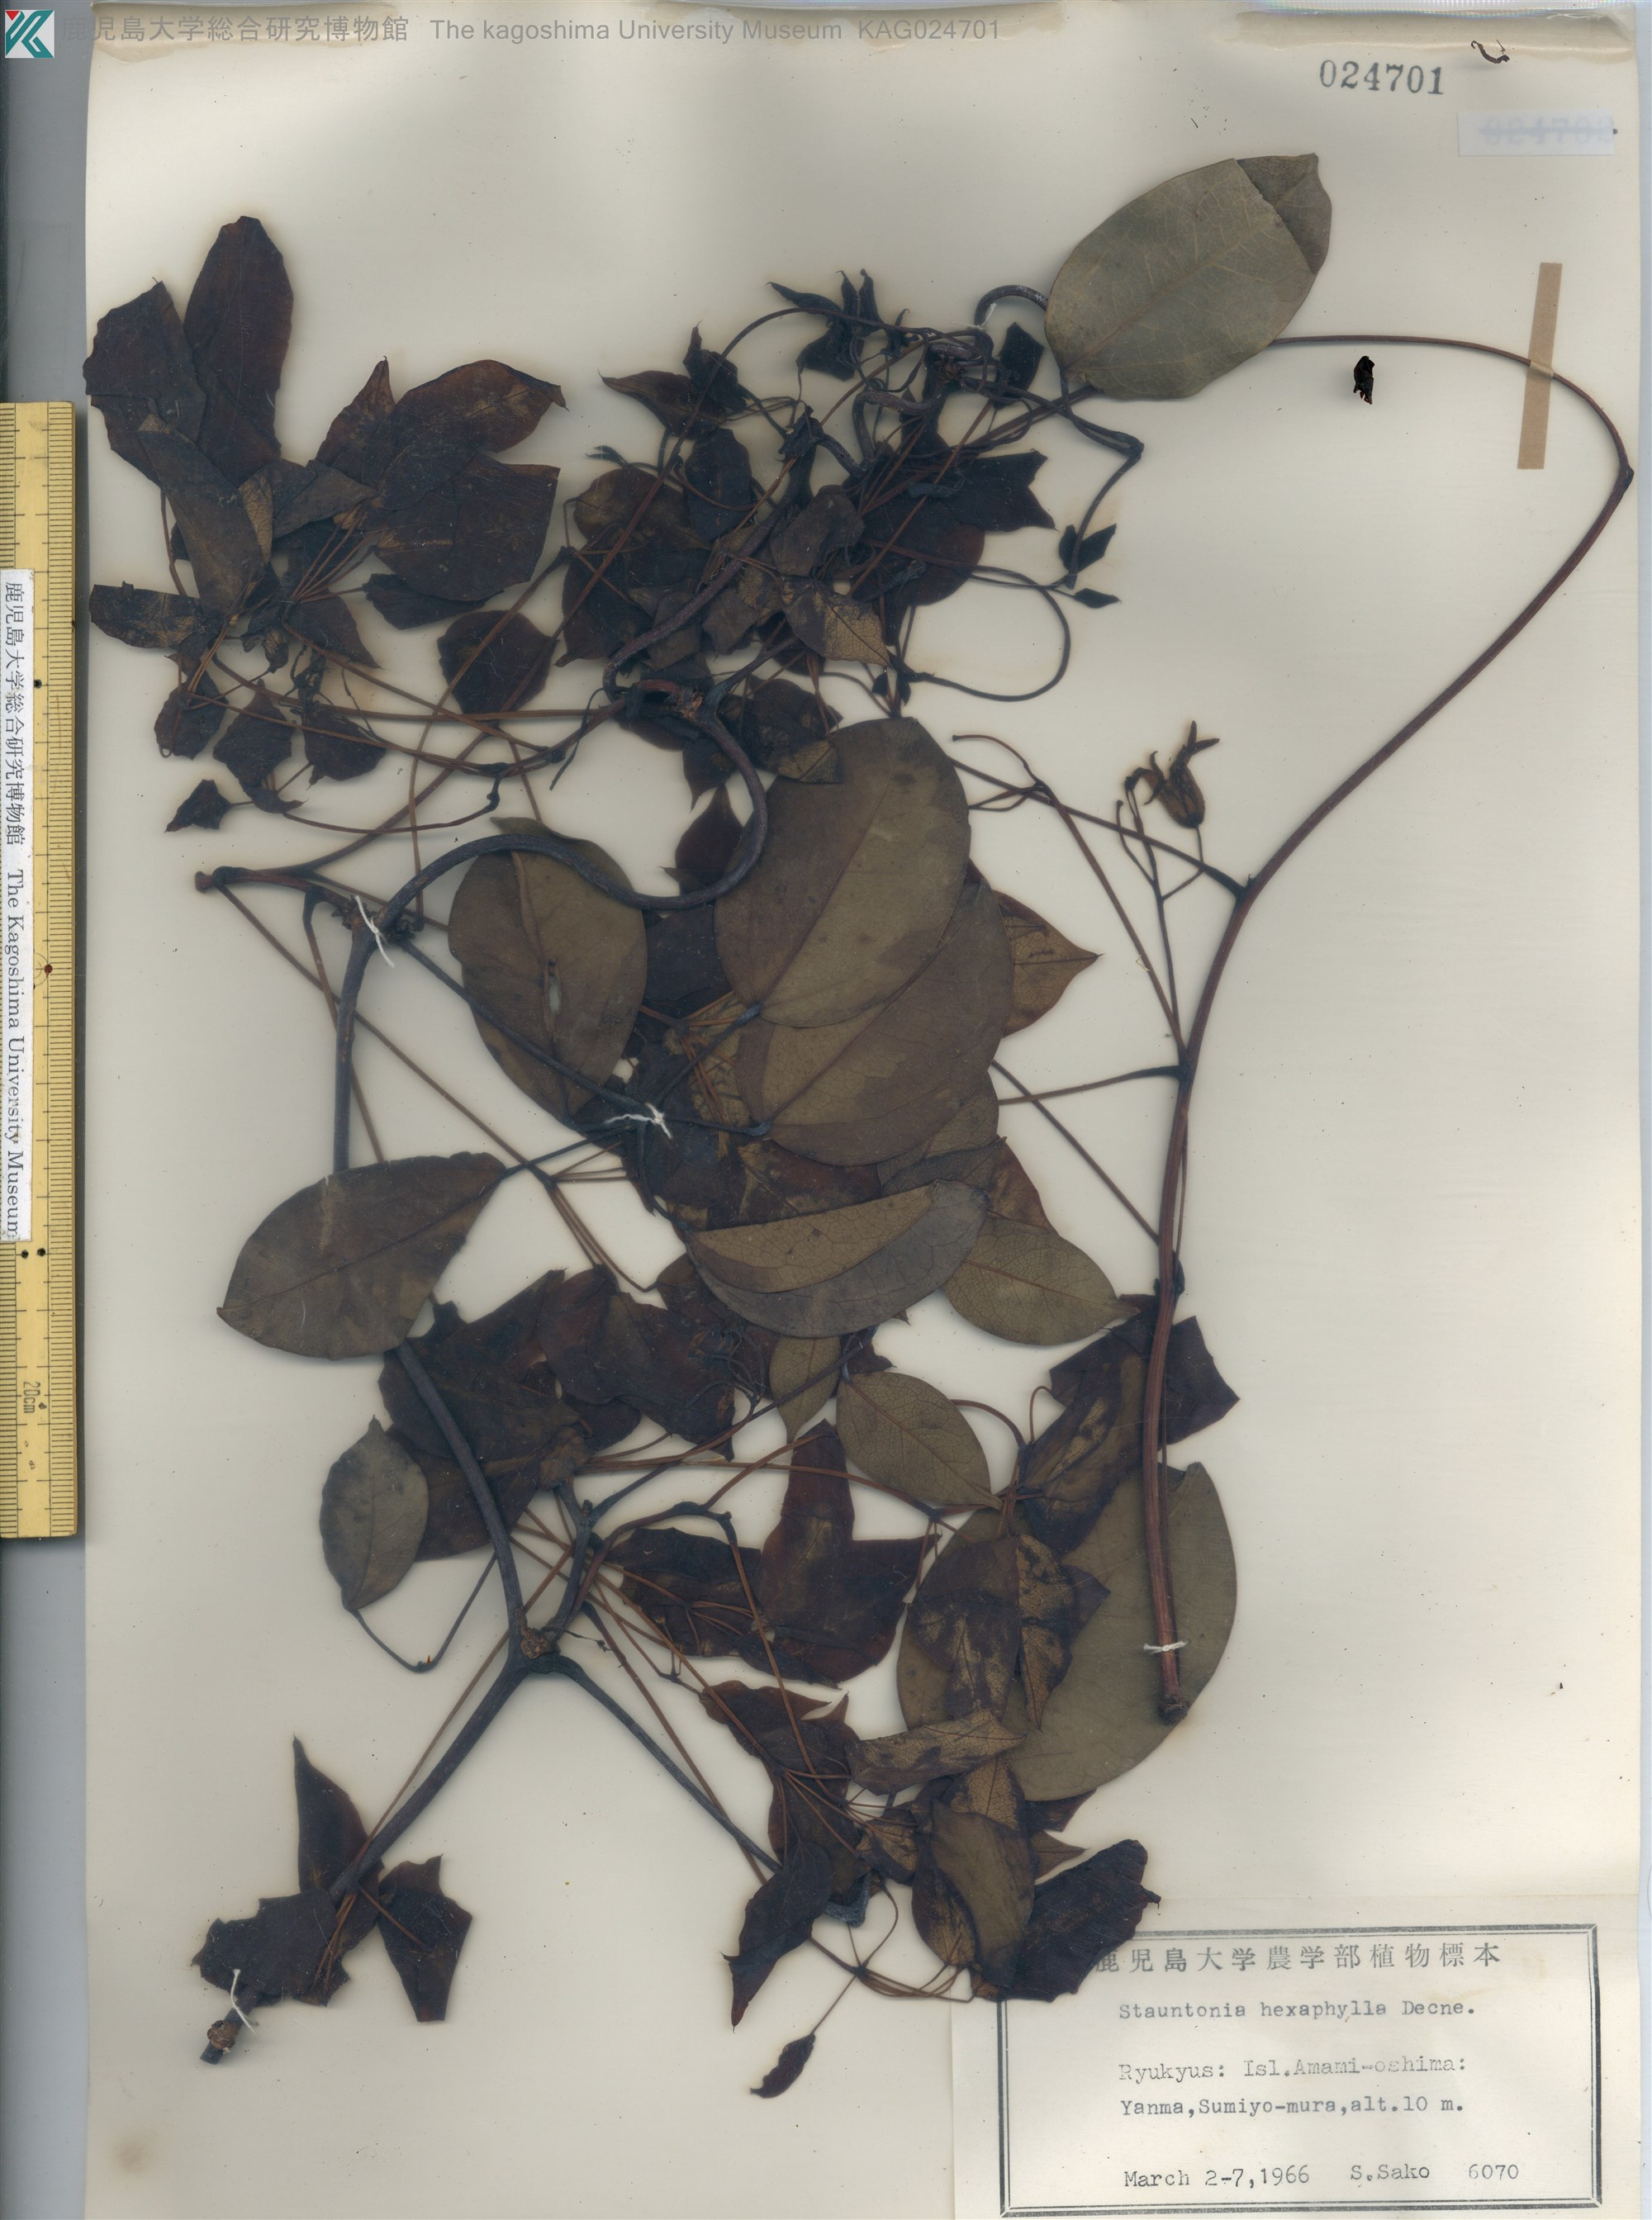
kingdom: Plantae
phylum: Tracheophyta
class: Magnoliopsida
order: Ranunculales
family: Lardizabalaceae
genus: Stauntonia
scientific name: Stauntonia hexaphylla
